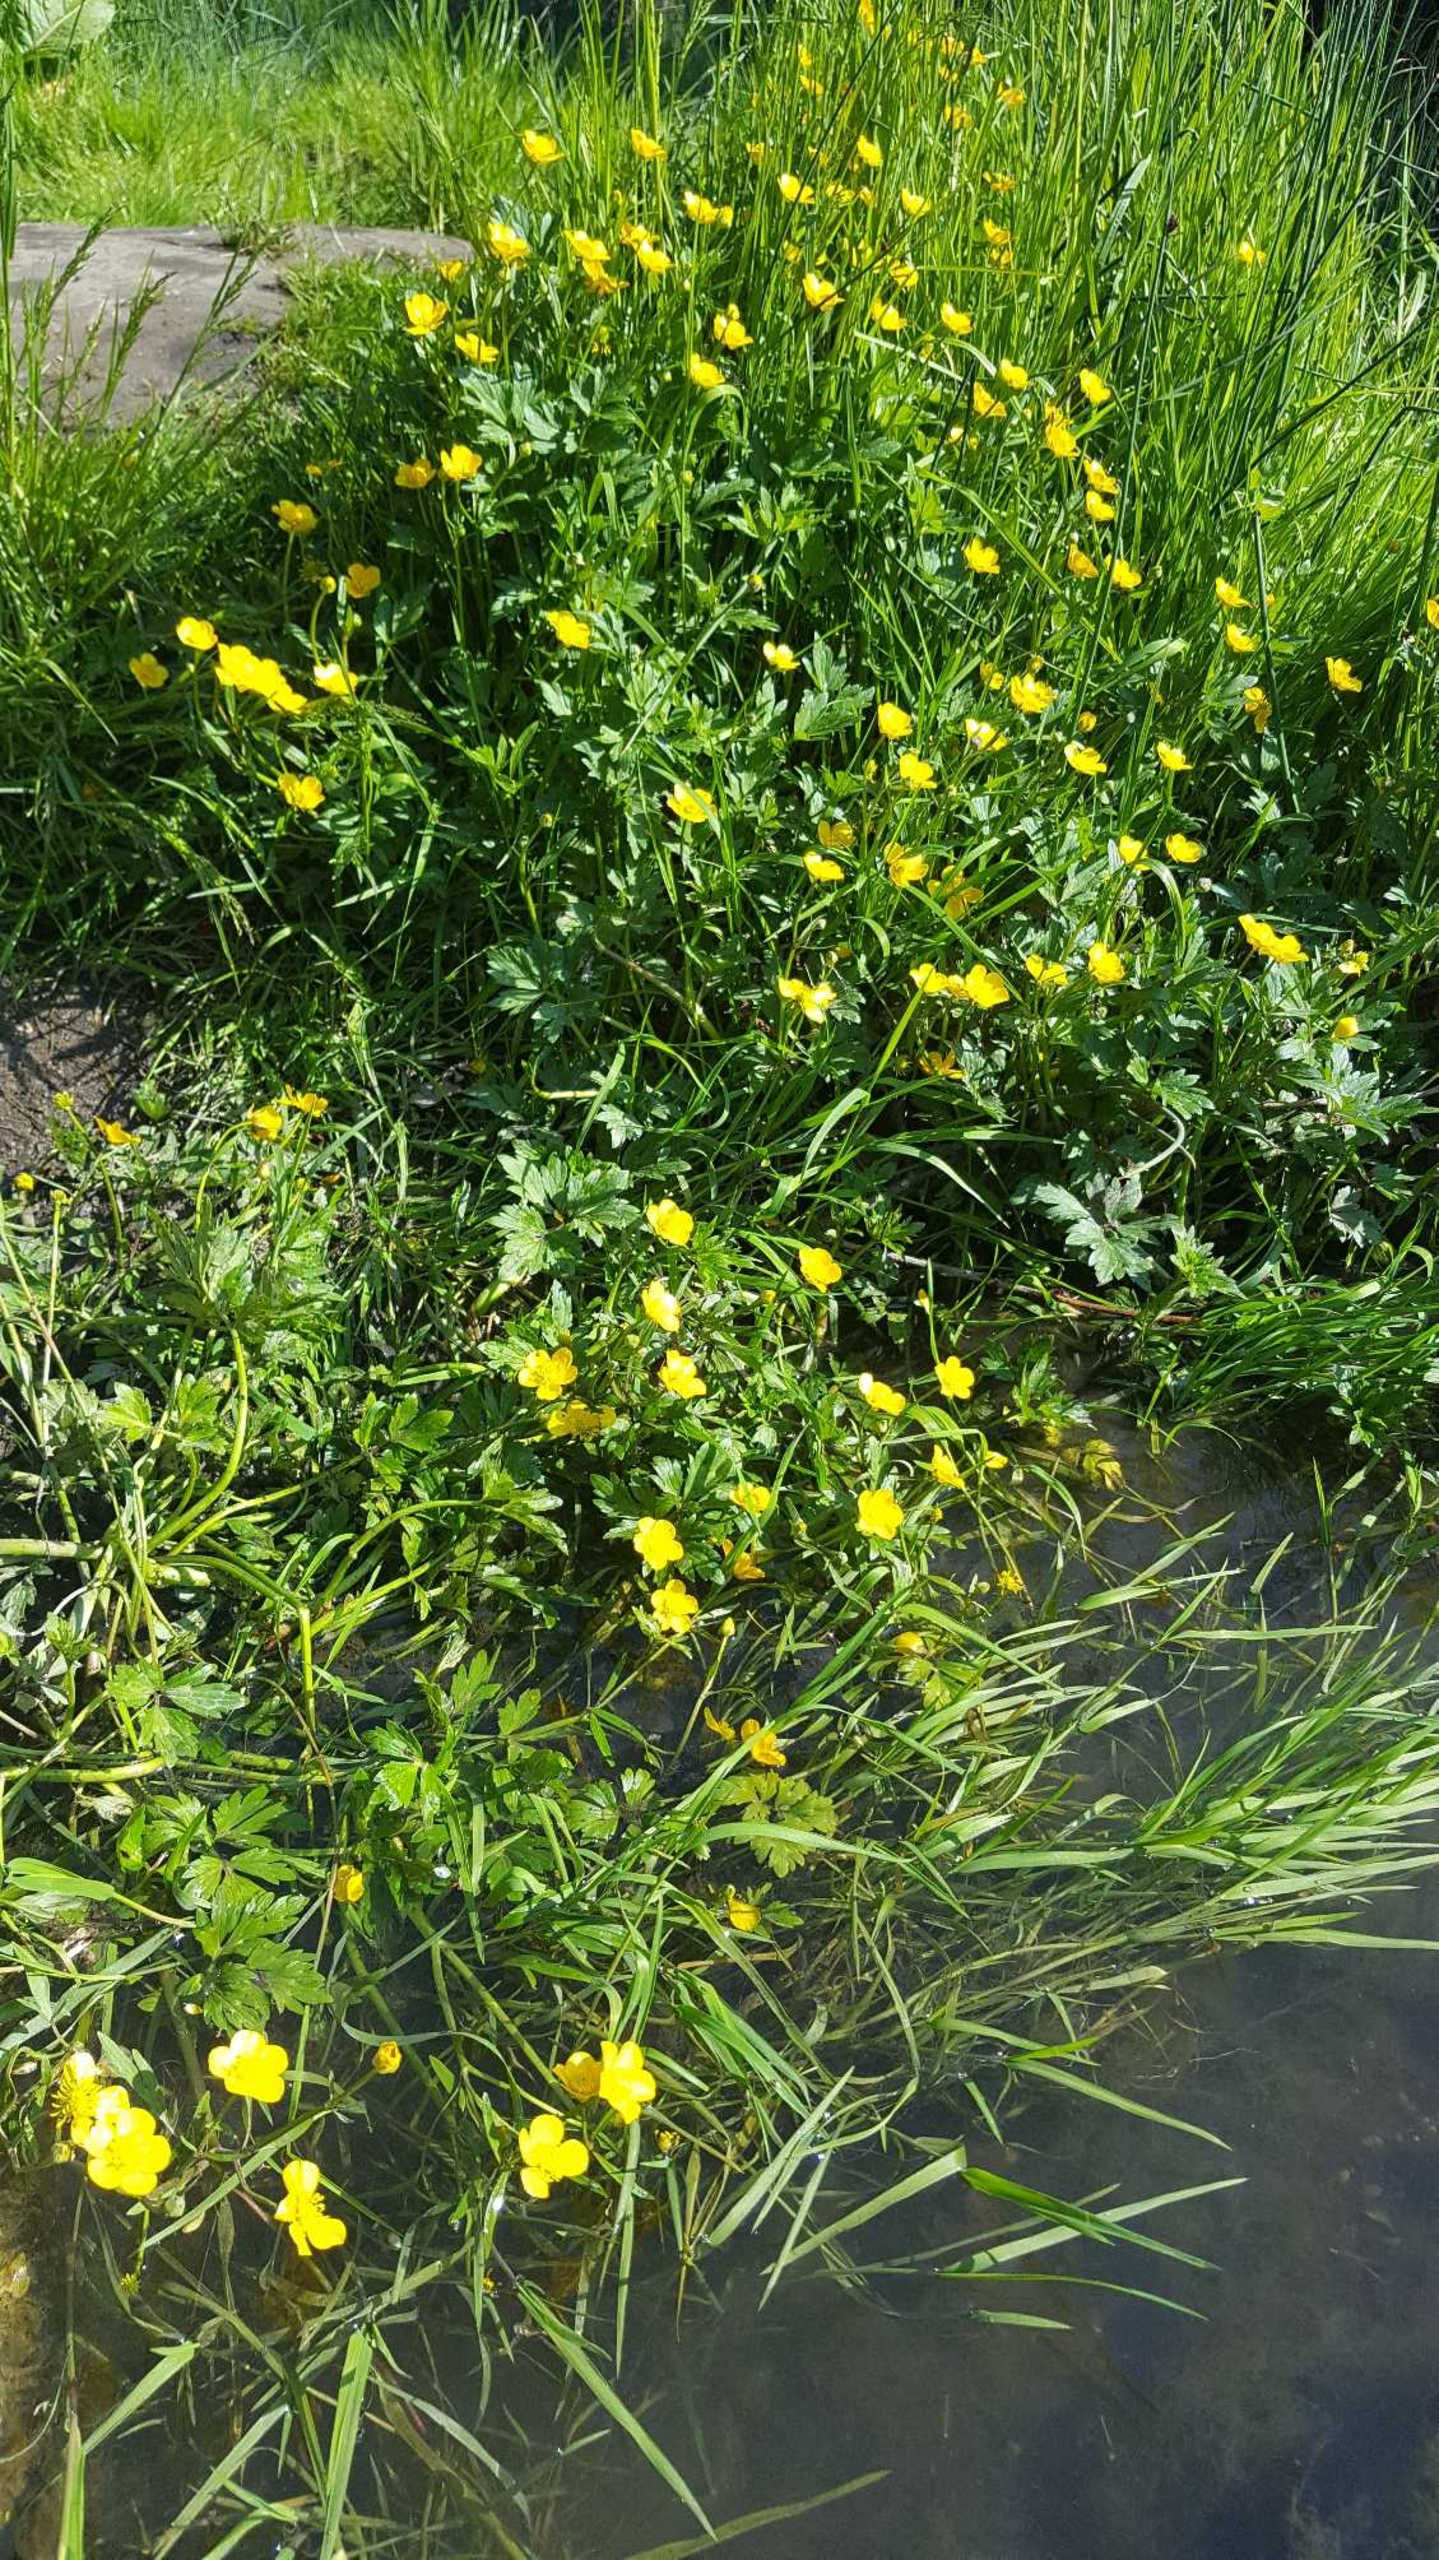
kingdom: Plantae
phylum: Tracheophyta
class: Magnoliopsida
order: Ranunculales
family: Ranunculaceae
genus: Ranunculus
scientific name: Ranunculus repens
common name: Lav ranunkel
